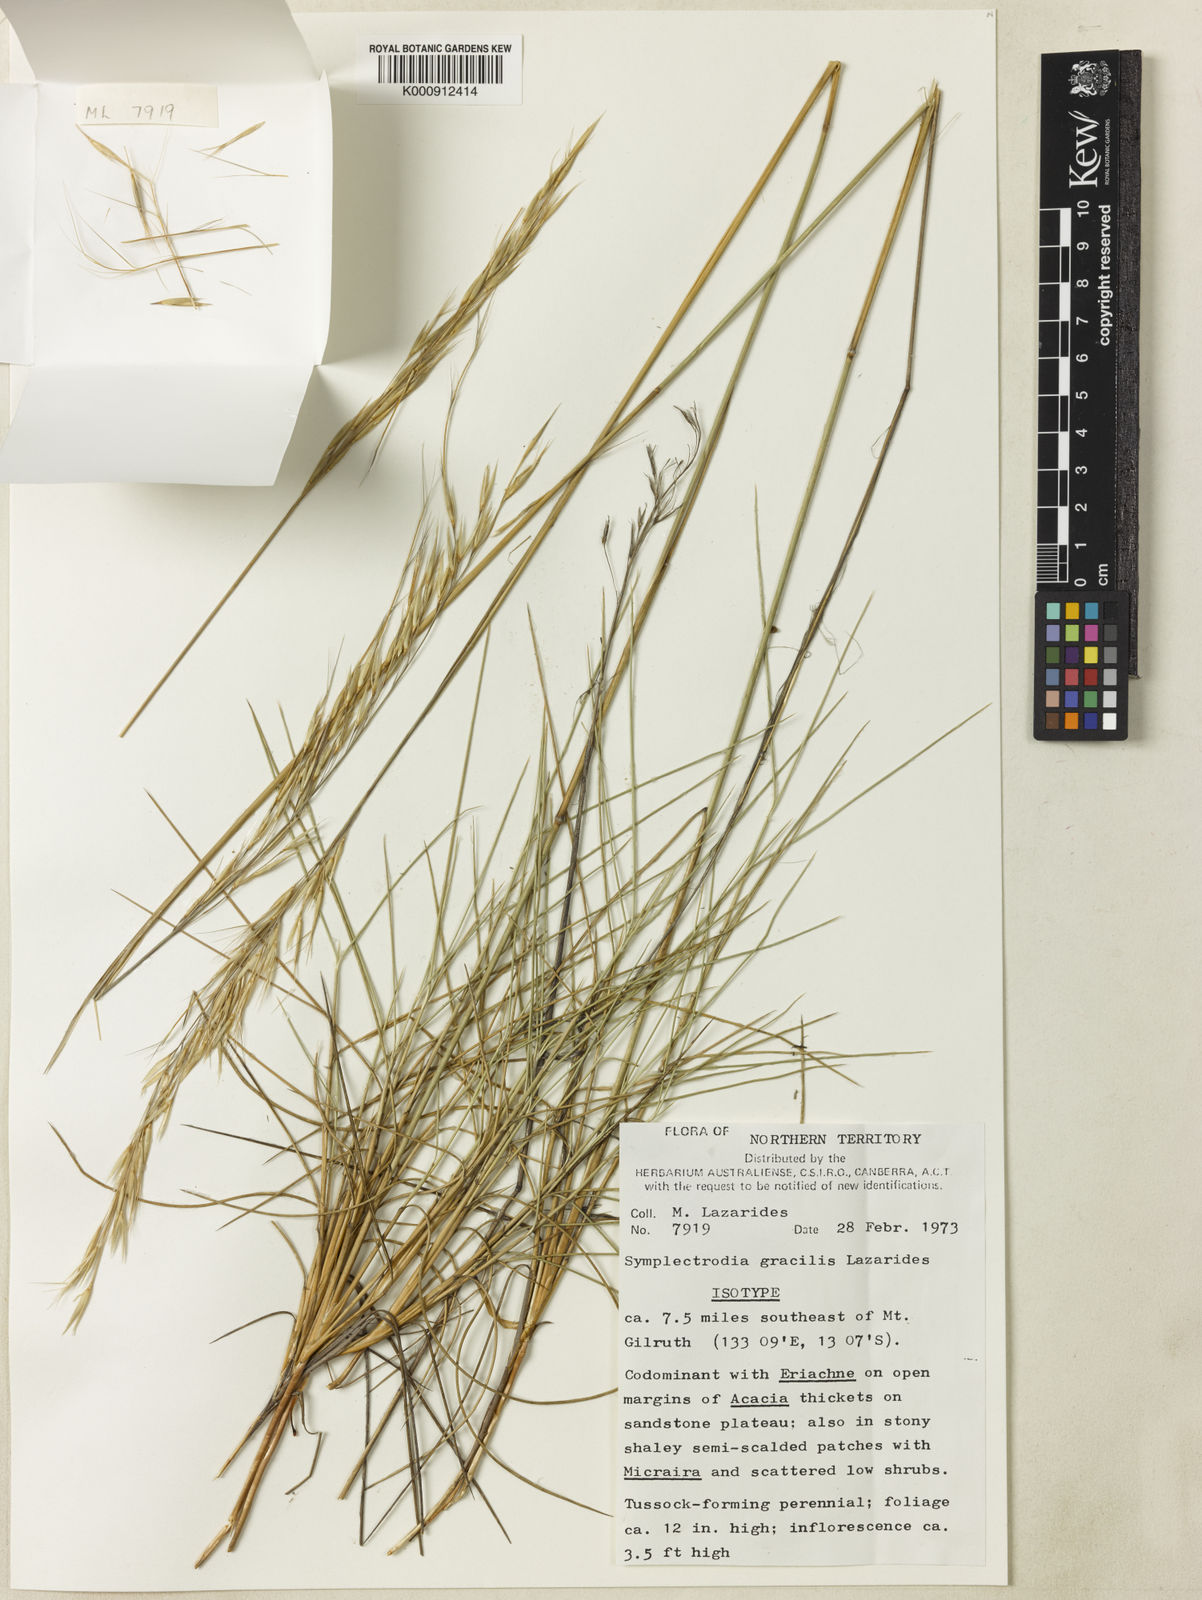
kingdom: Plantae
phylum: Tracheophyta
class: Liliopsida
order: Poales
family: Poaceae
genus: Triodia
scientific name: Triodia gracilis
